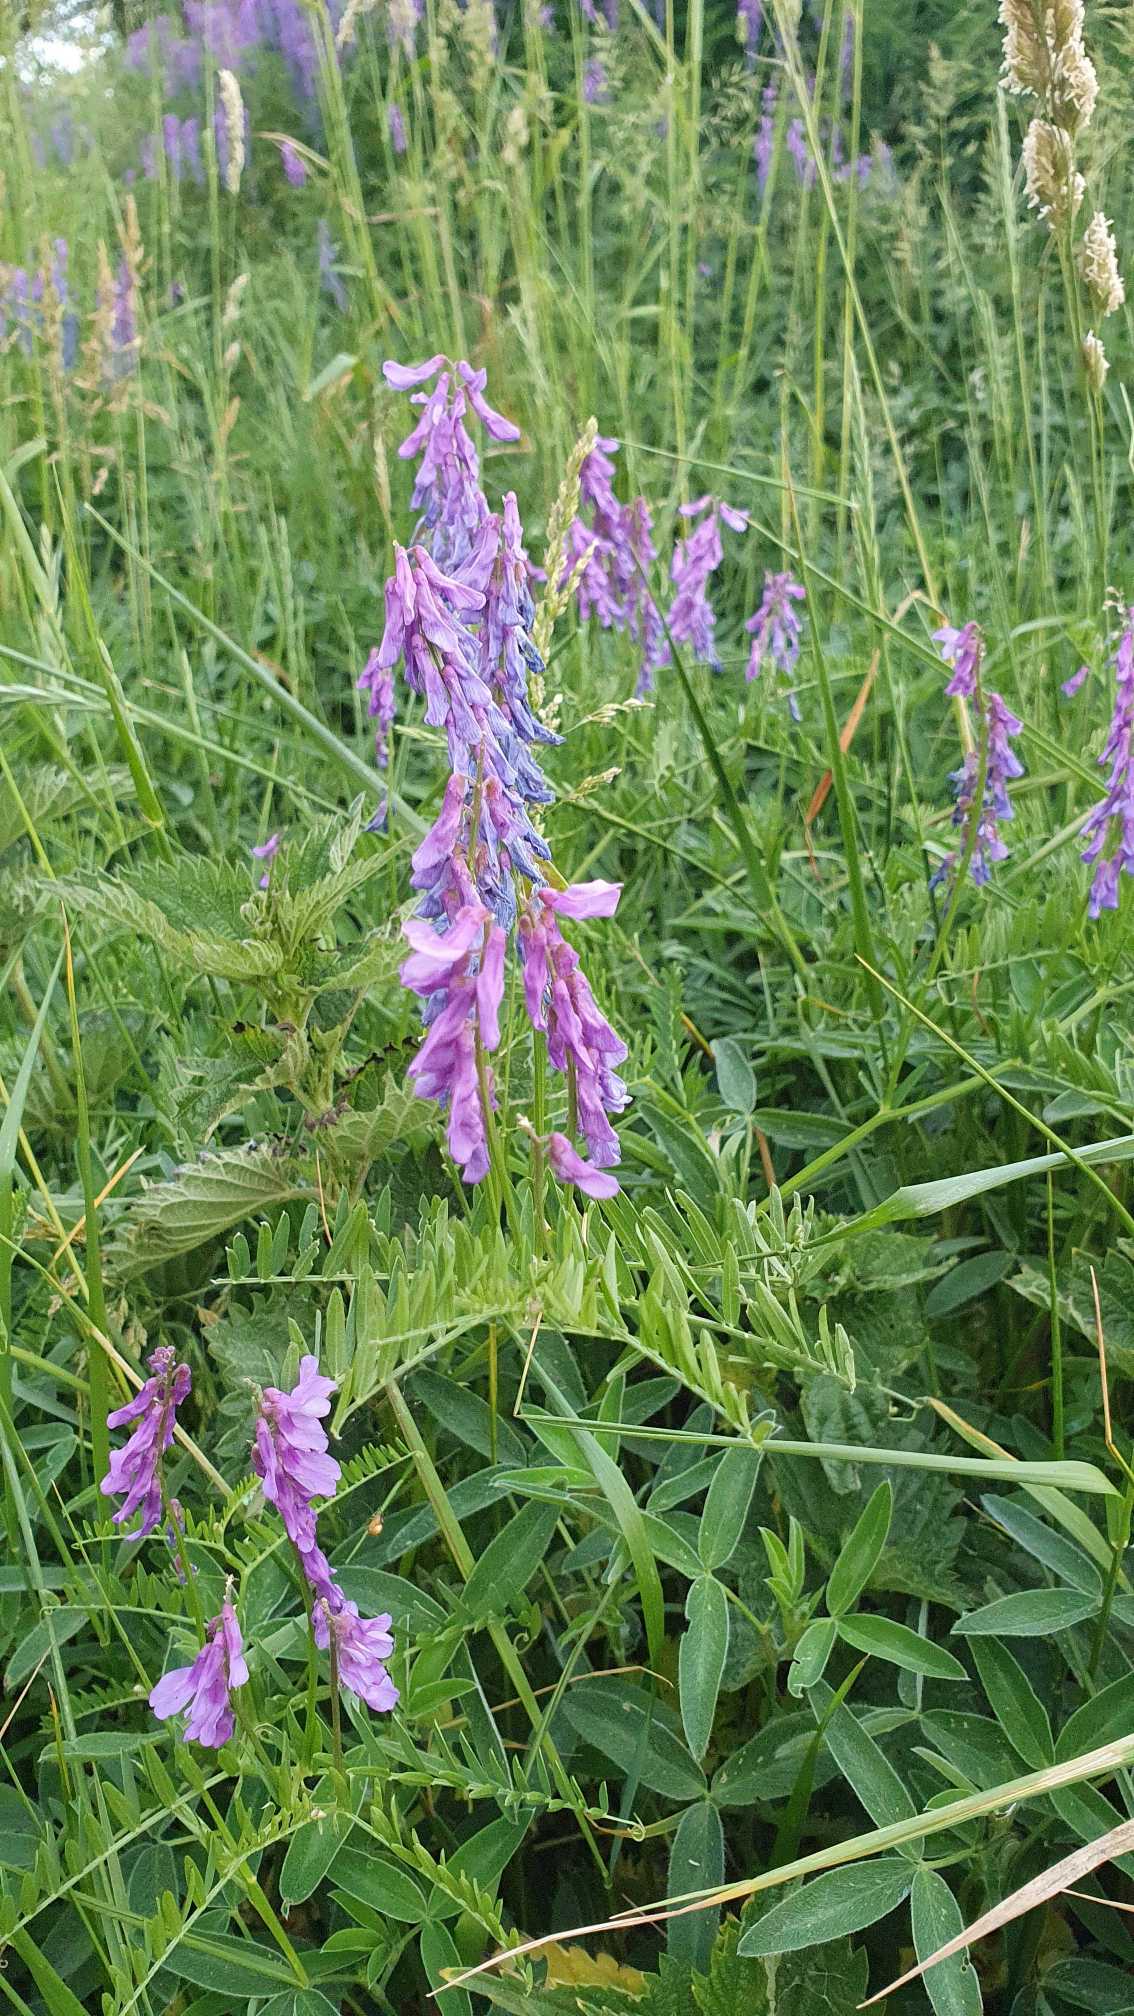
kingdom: Plantae
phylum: Tracheophyta
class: Magnoliopsida
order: Fabales
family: Fabaceae
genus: Vicia
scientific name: Vicia cracca
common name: Muse-vikke
